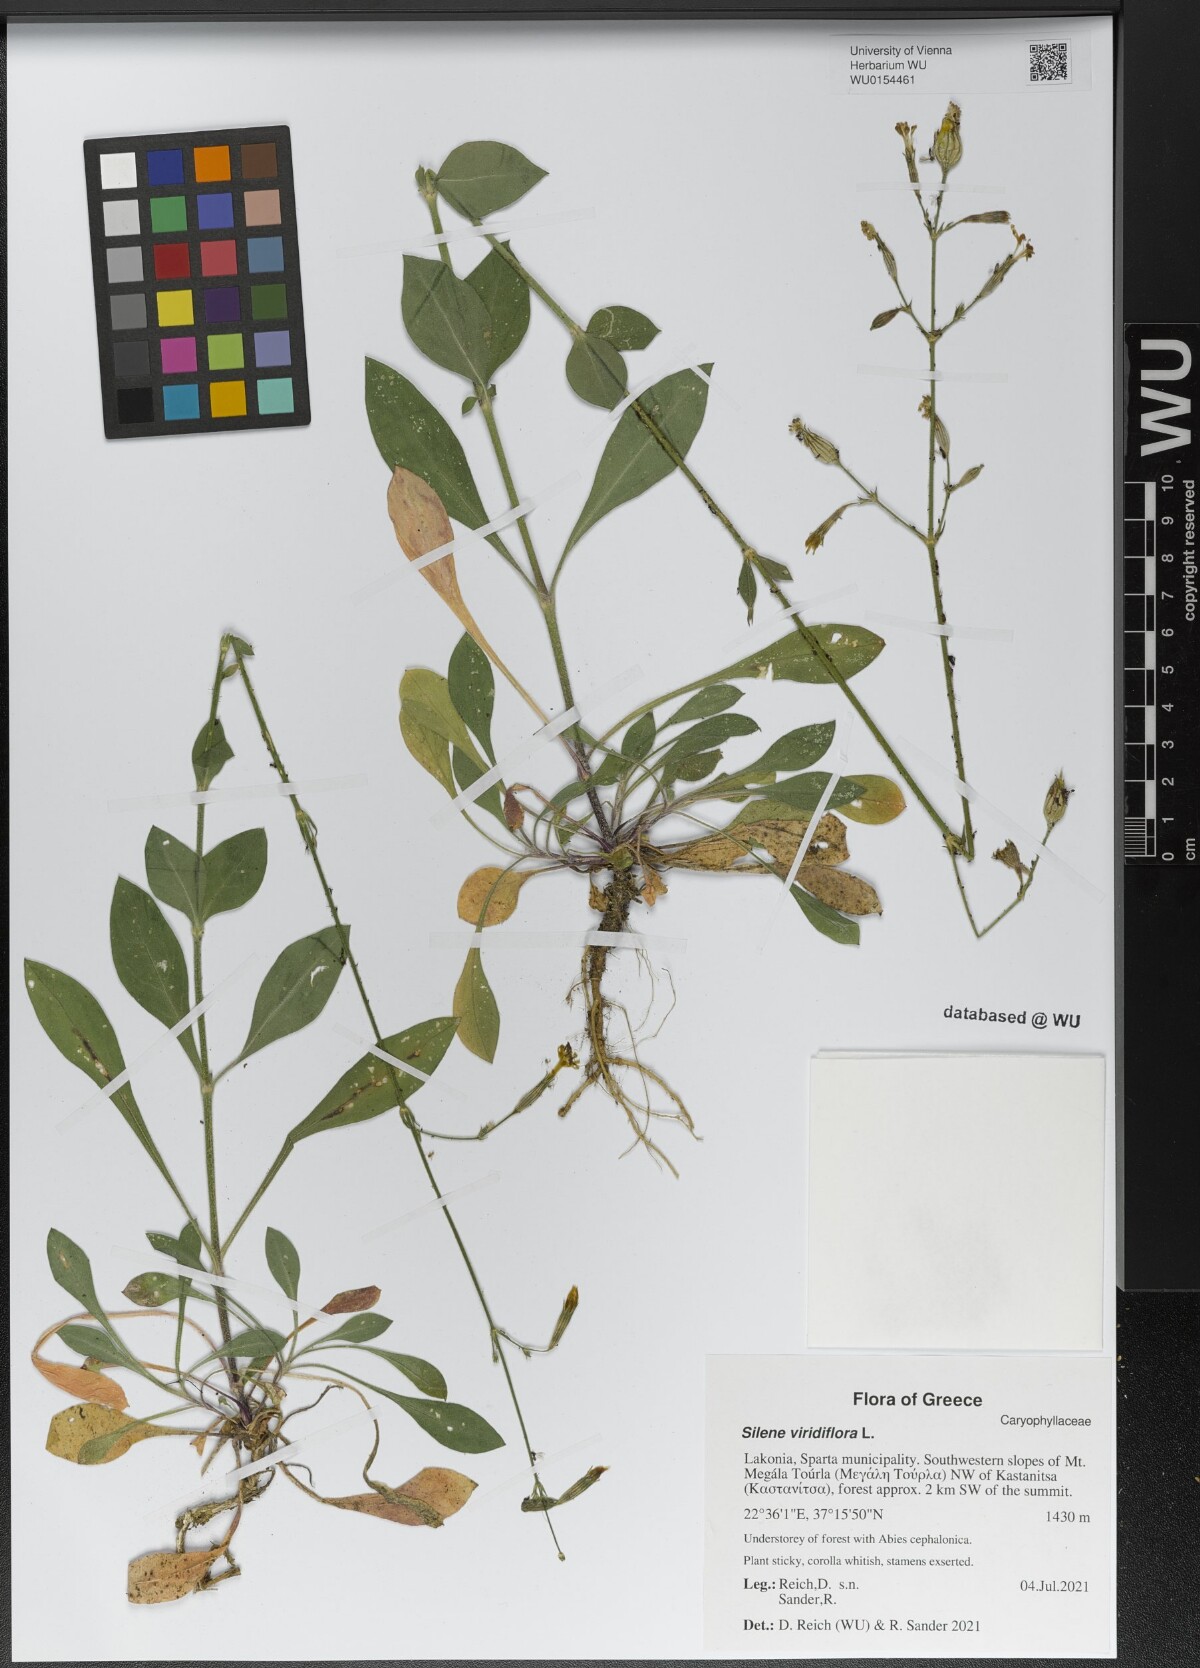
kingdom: Plantae
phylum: Tracheophyta
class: Magnoliopsida
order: Caryophyllales
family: Caryophyllaceae
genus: Silene
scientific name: Silene viridiflora
